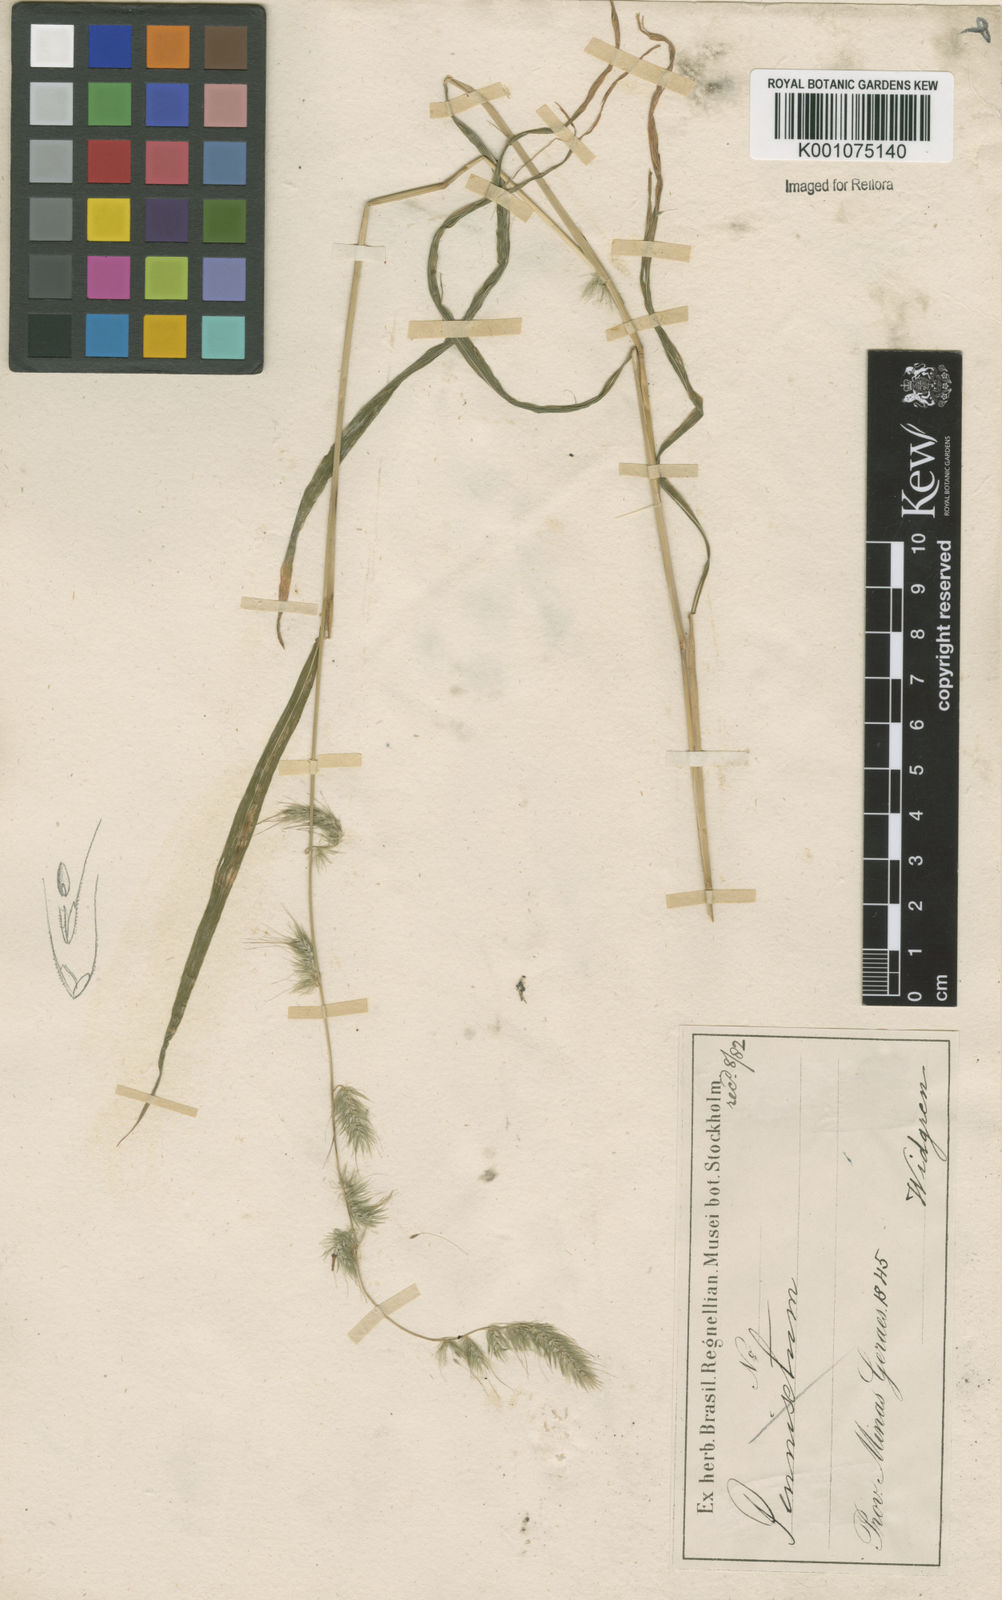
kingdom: Plantae
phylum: Tracheophyta
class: Liliopsida
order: Poales
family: Poaceae
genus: Muhlenbergia
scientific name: Muhlenbergia beyrichiana
